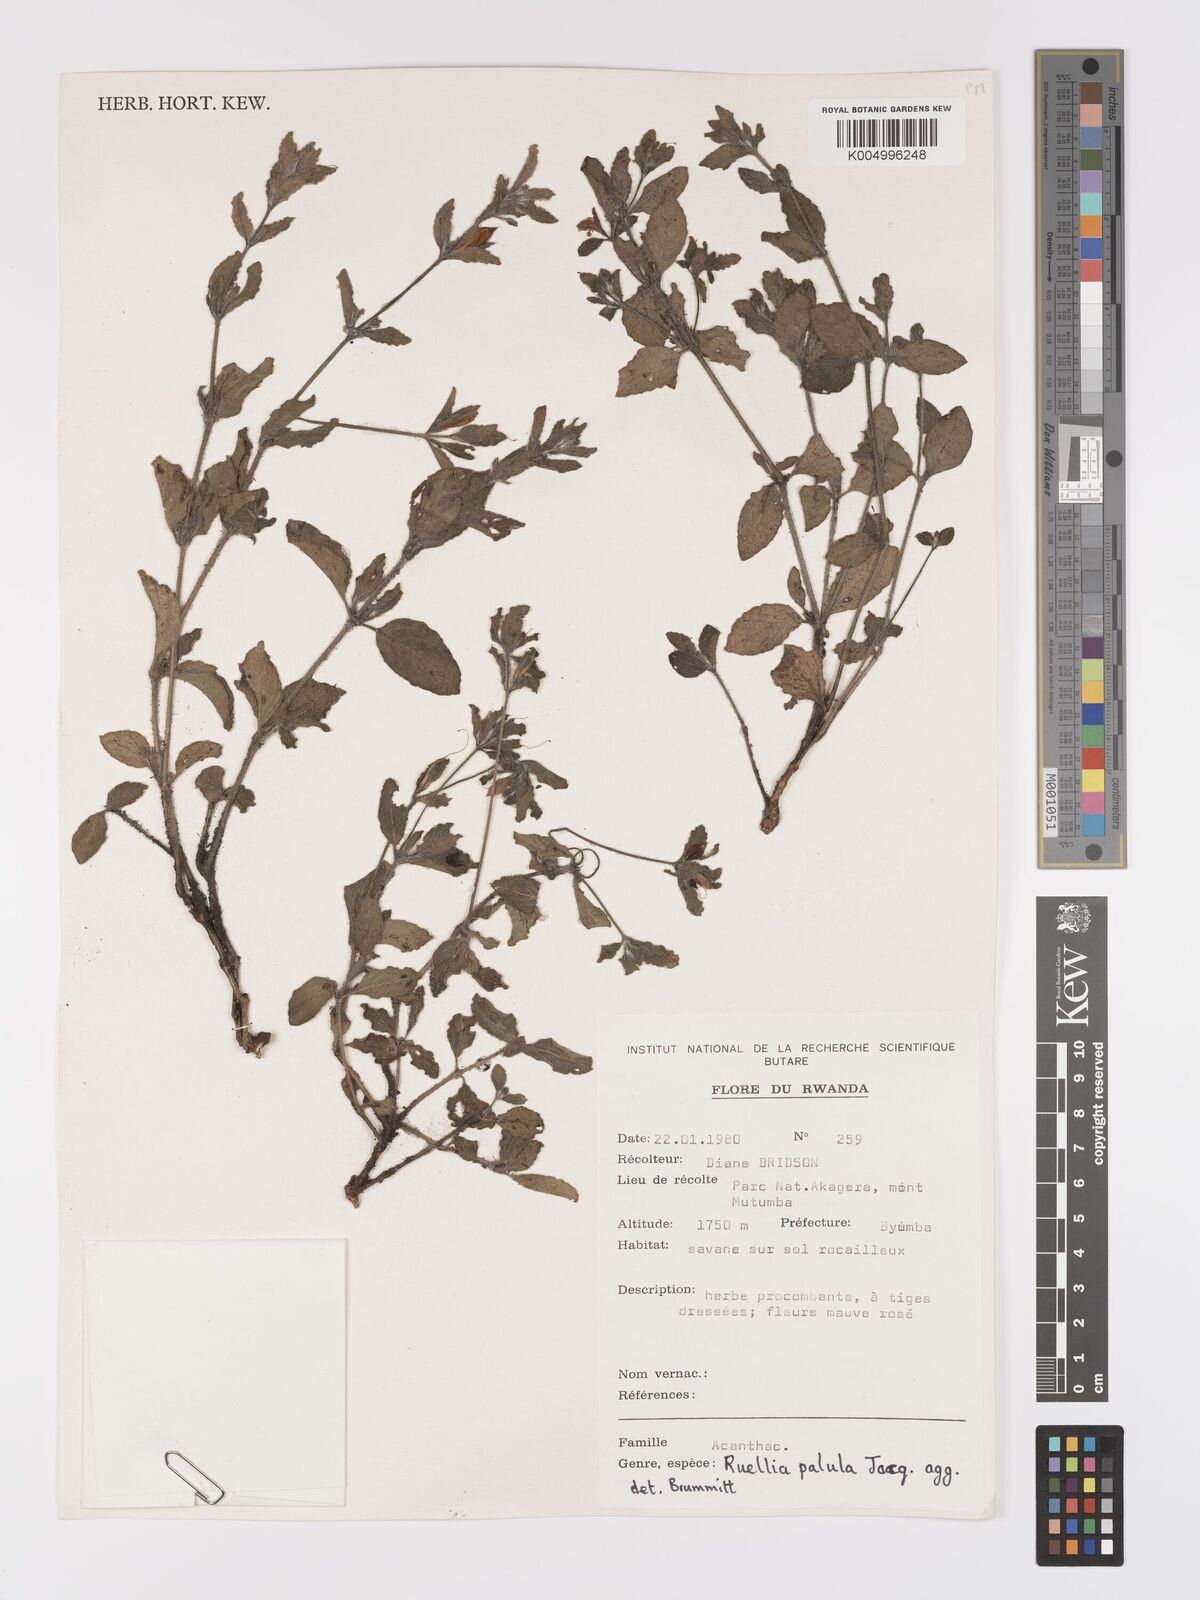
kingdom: Plantae
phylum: Tracheophyta
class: Magnoliopsida
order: Lamiales
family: Acanthaceae
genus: Ruellia
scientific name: Ruellia patula
